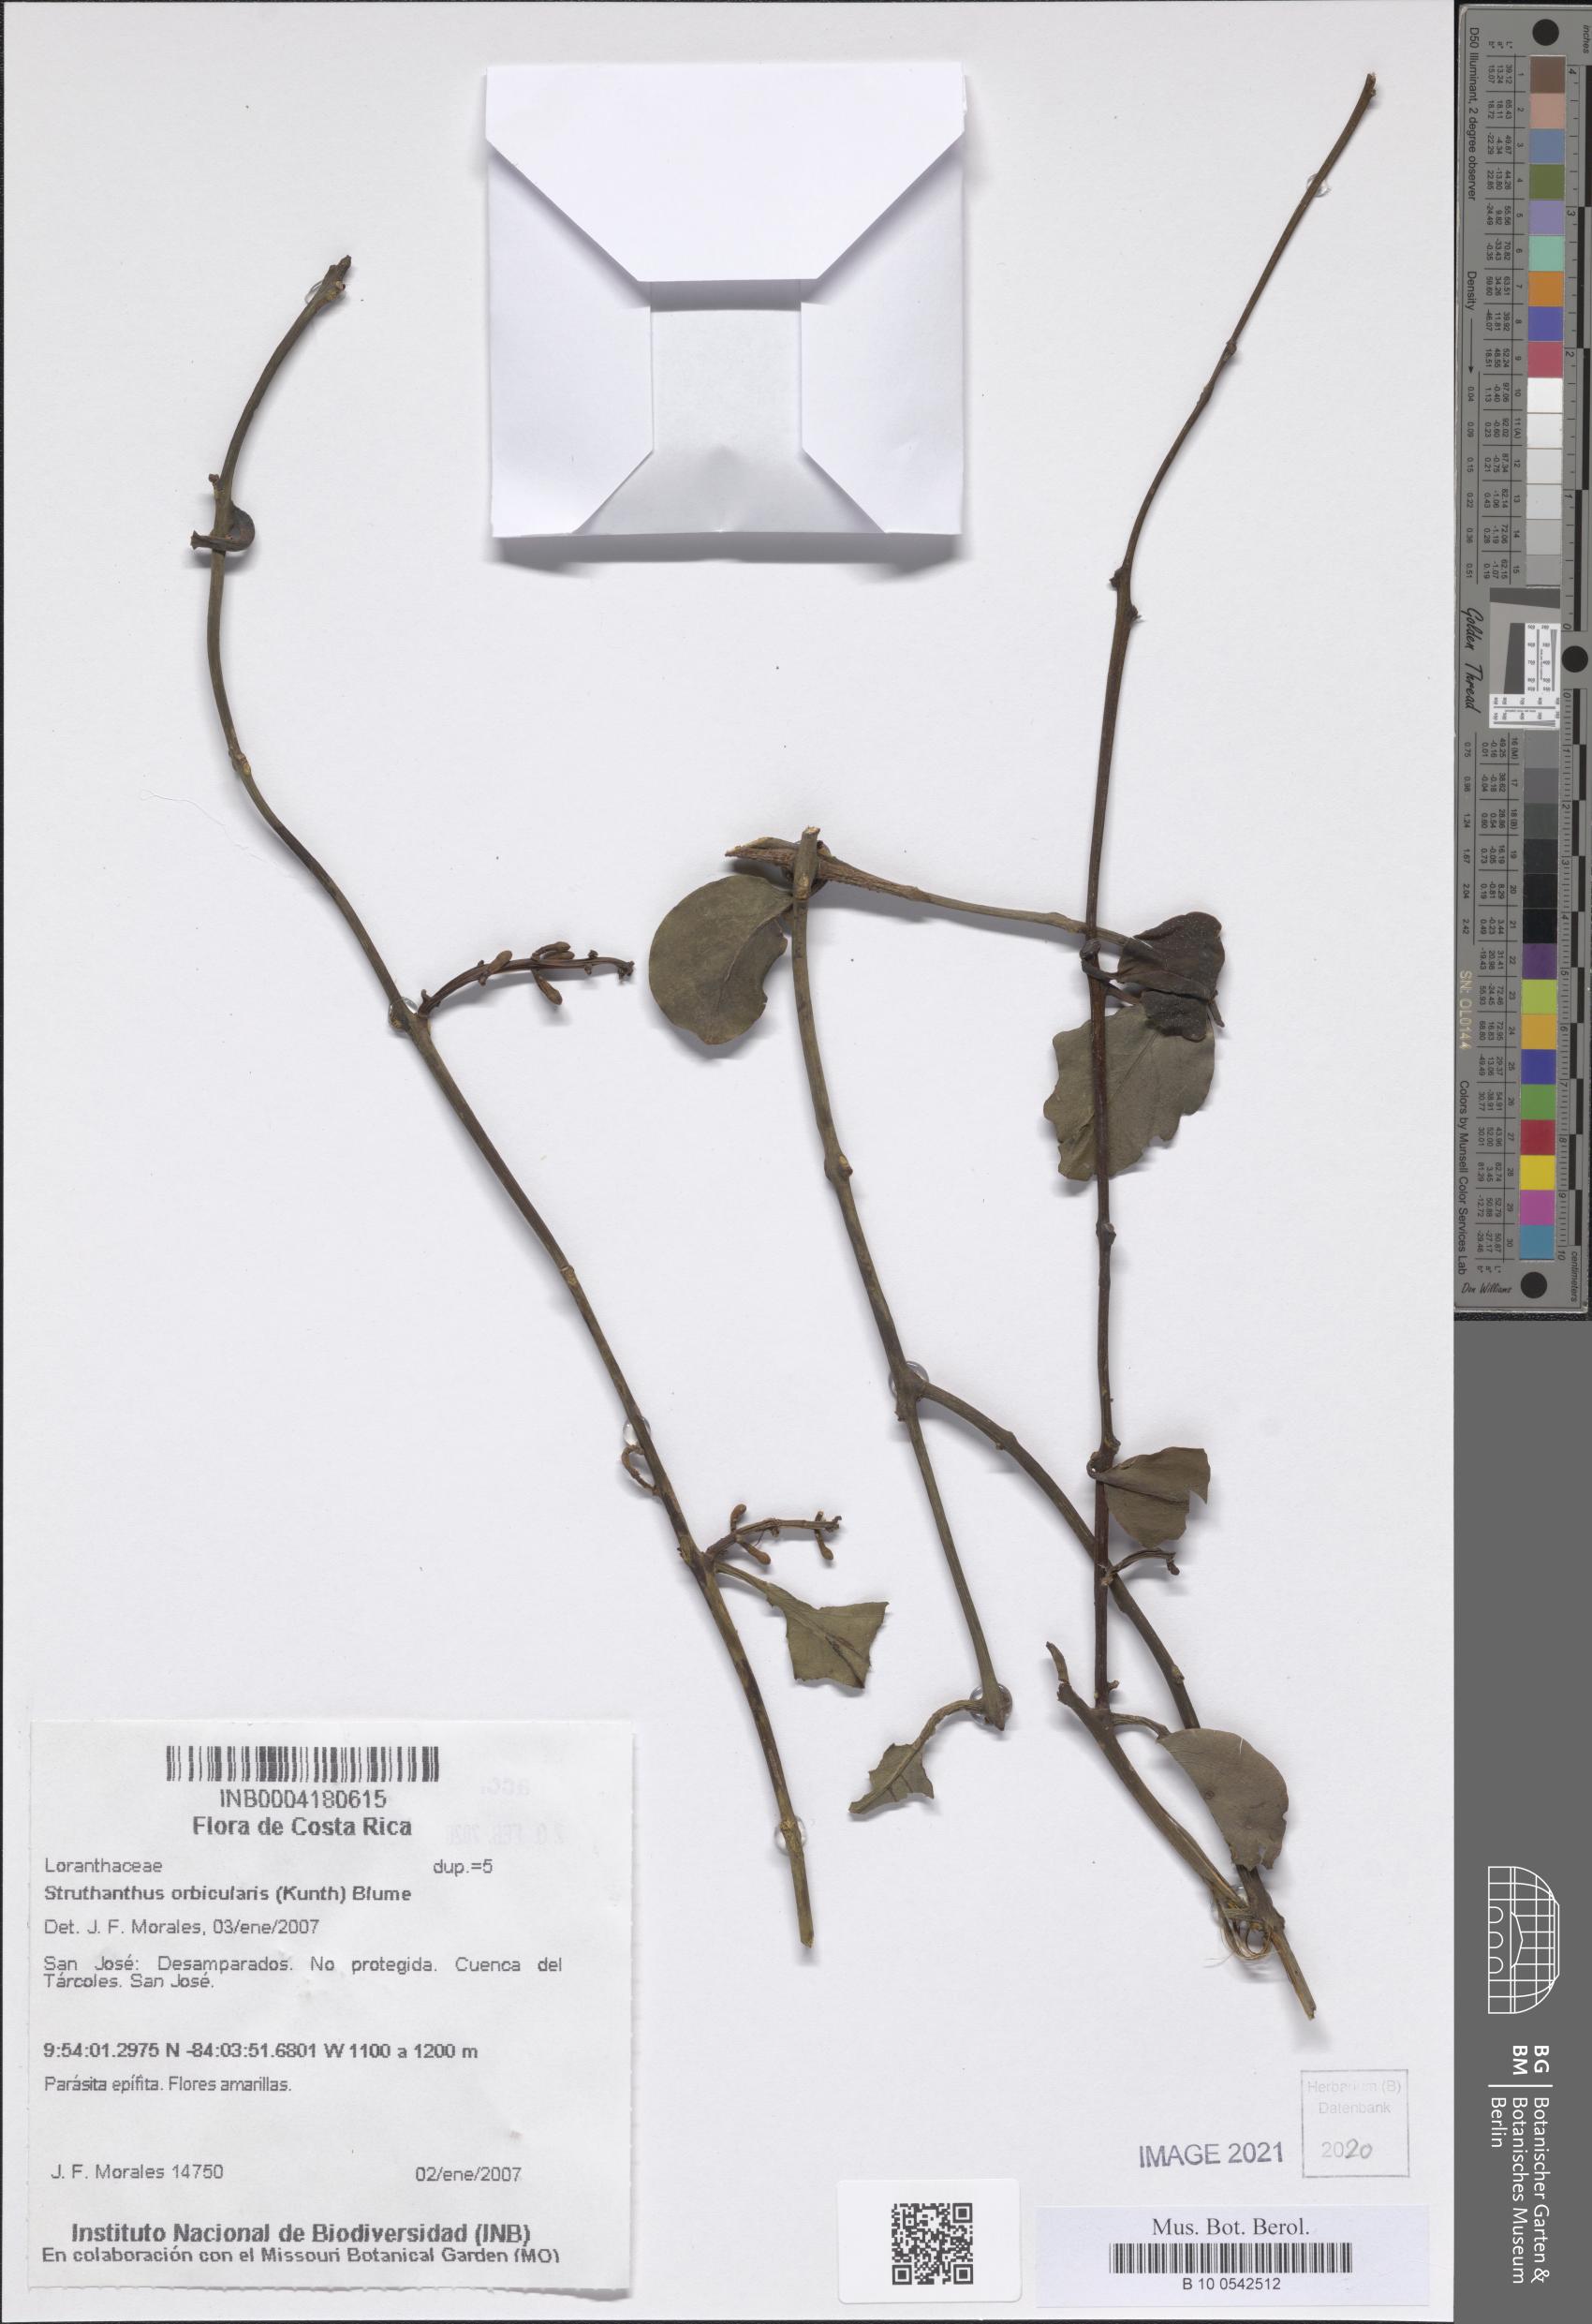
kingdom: Plantae
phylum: Tracheophyta
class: Magnoliopsida
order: Santalales
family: Loranthaceae
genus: Struthanthus
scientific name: Struthanthus orbicularis
